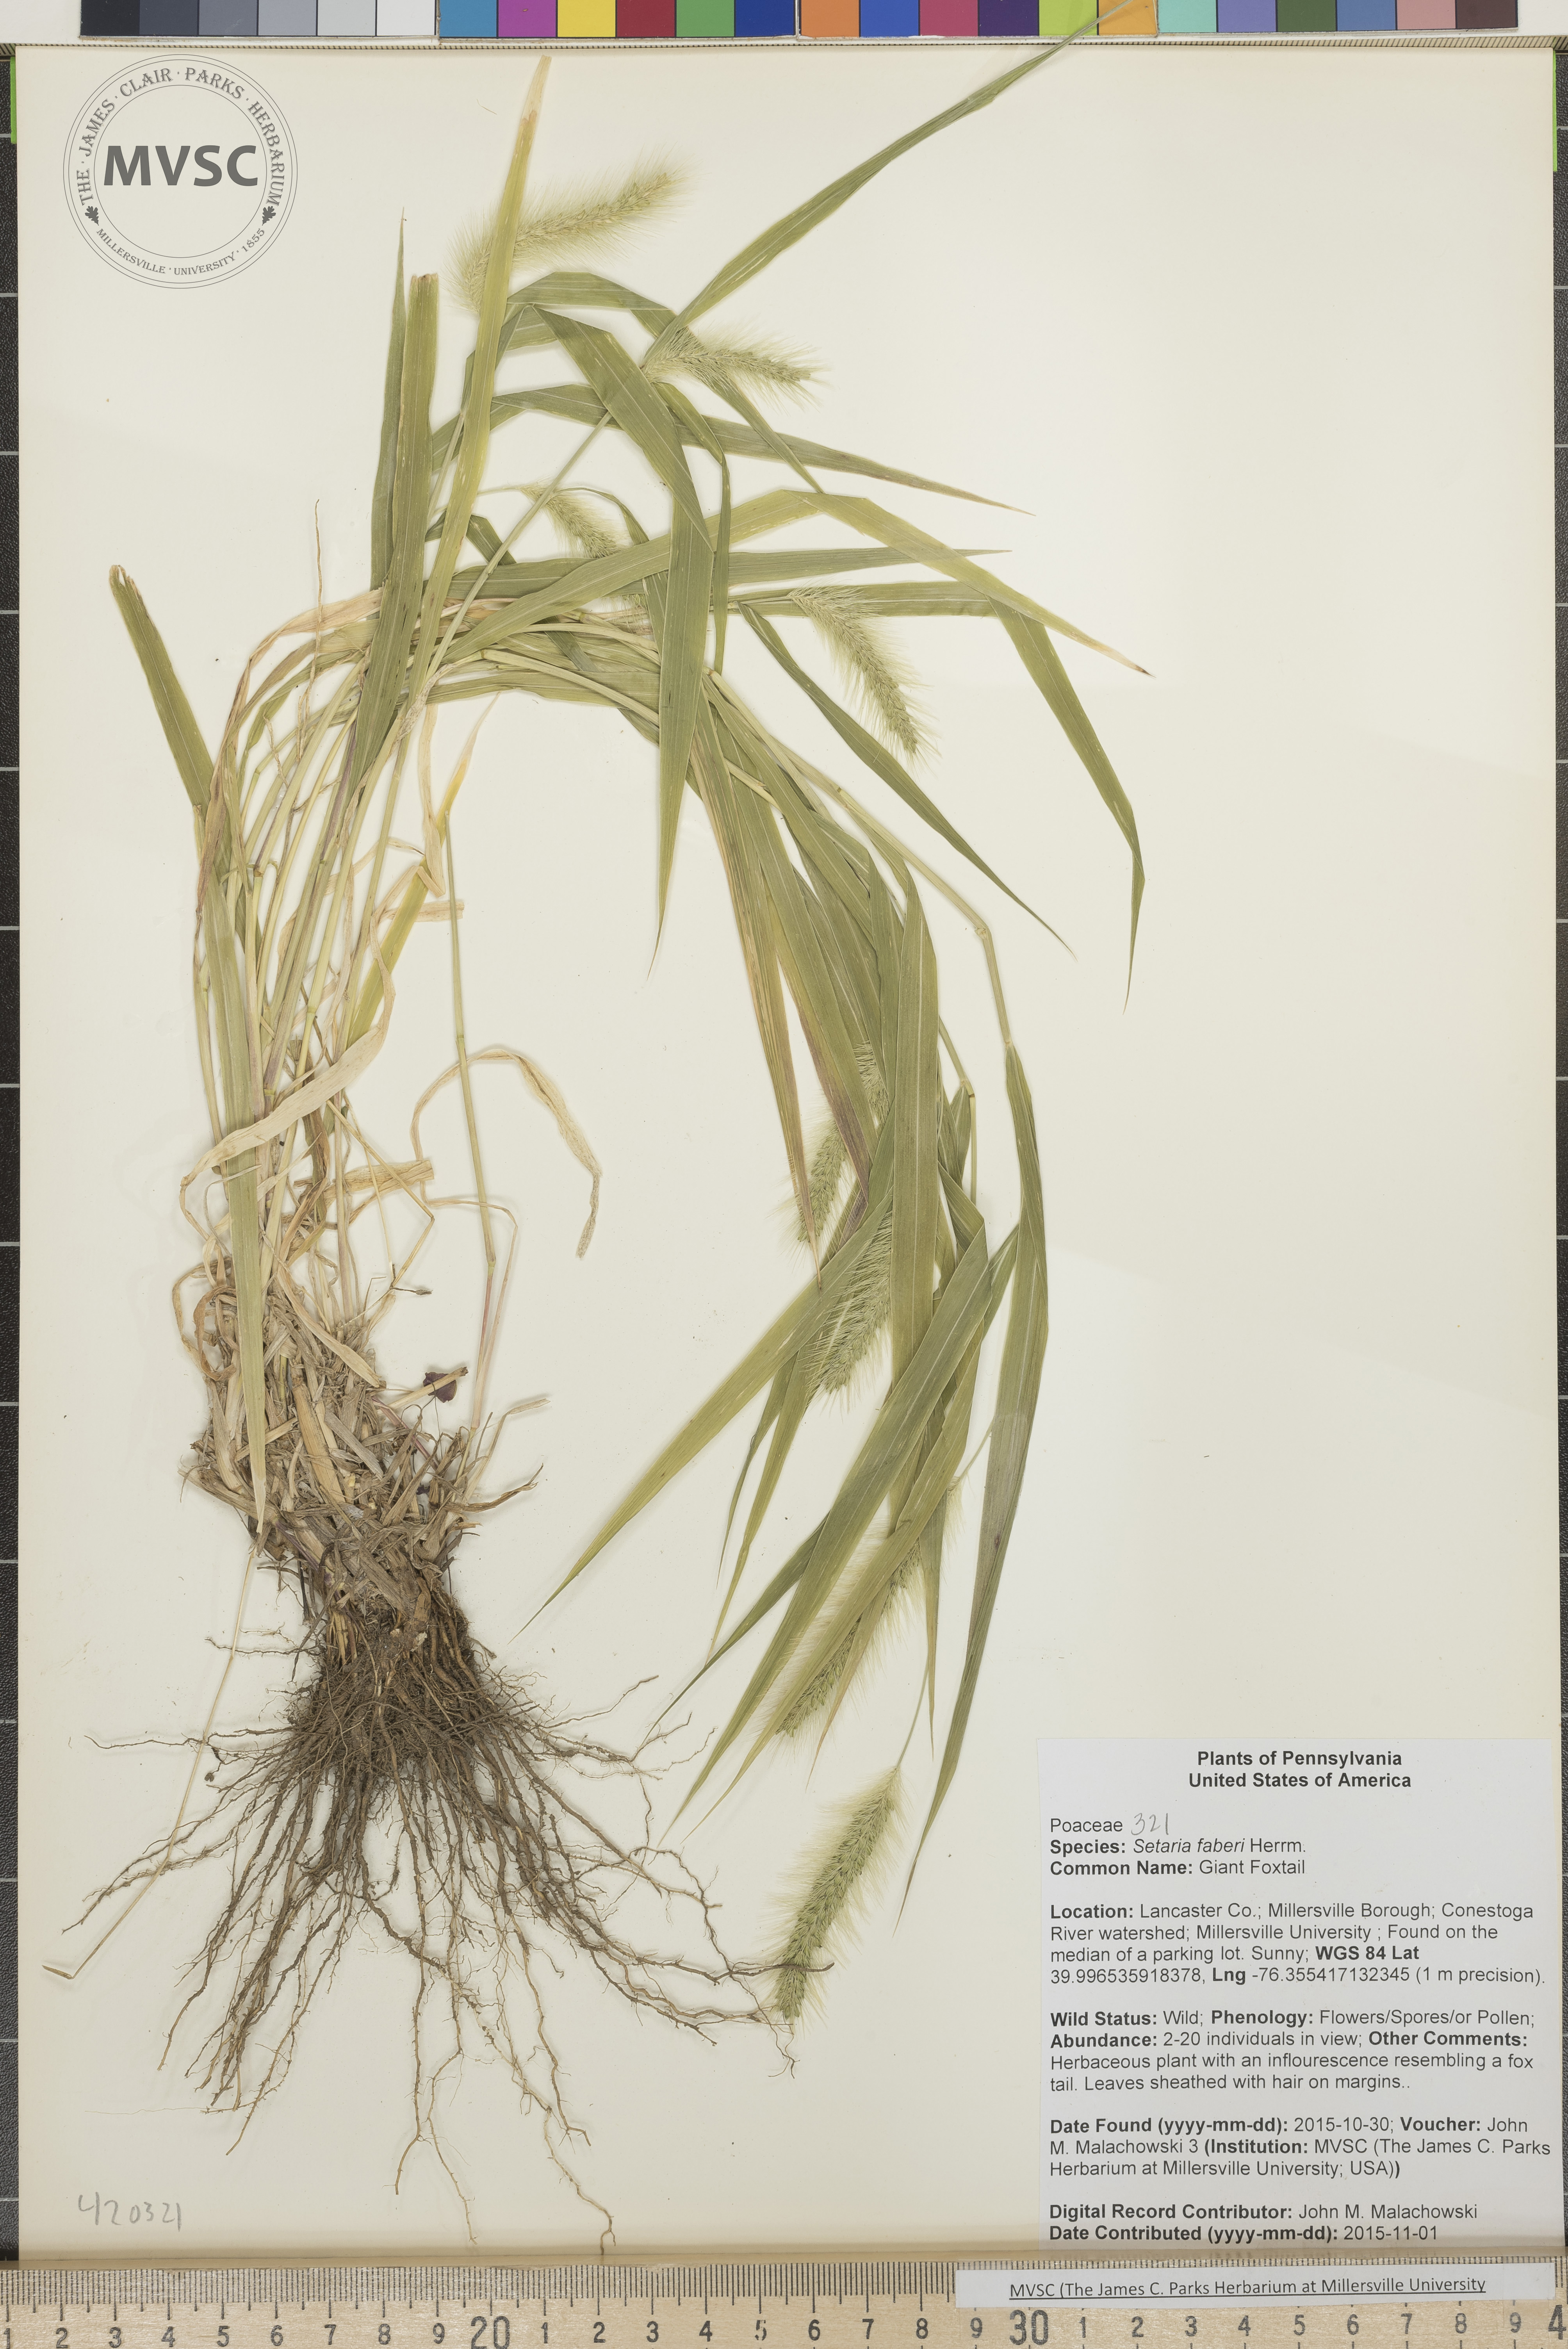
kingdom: Plantae
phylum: Tracheophyta
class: Liliopsida
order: Poales
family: Poaceae
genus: Setaria
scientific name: Setaria faberi
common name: Giant Foxtail
